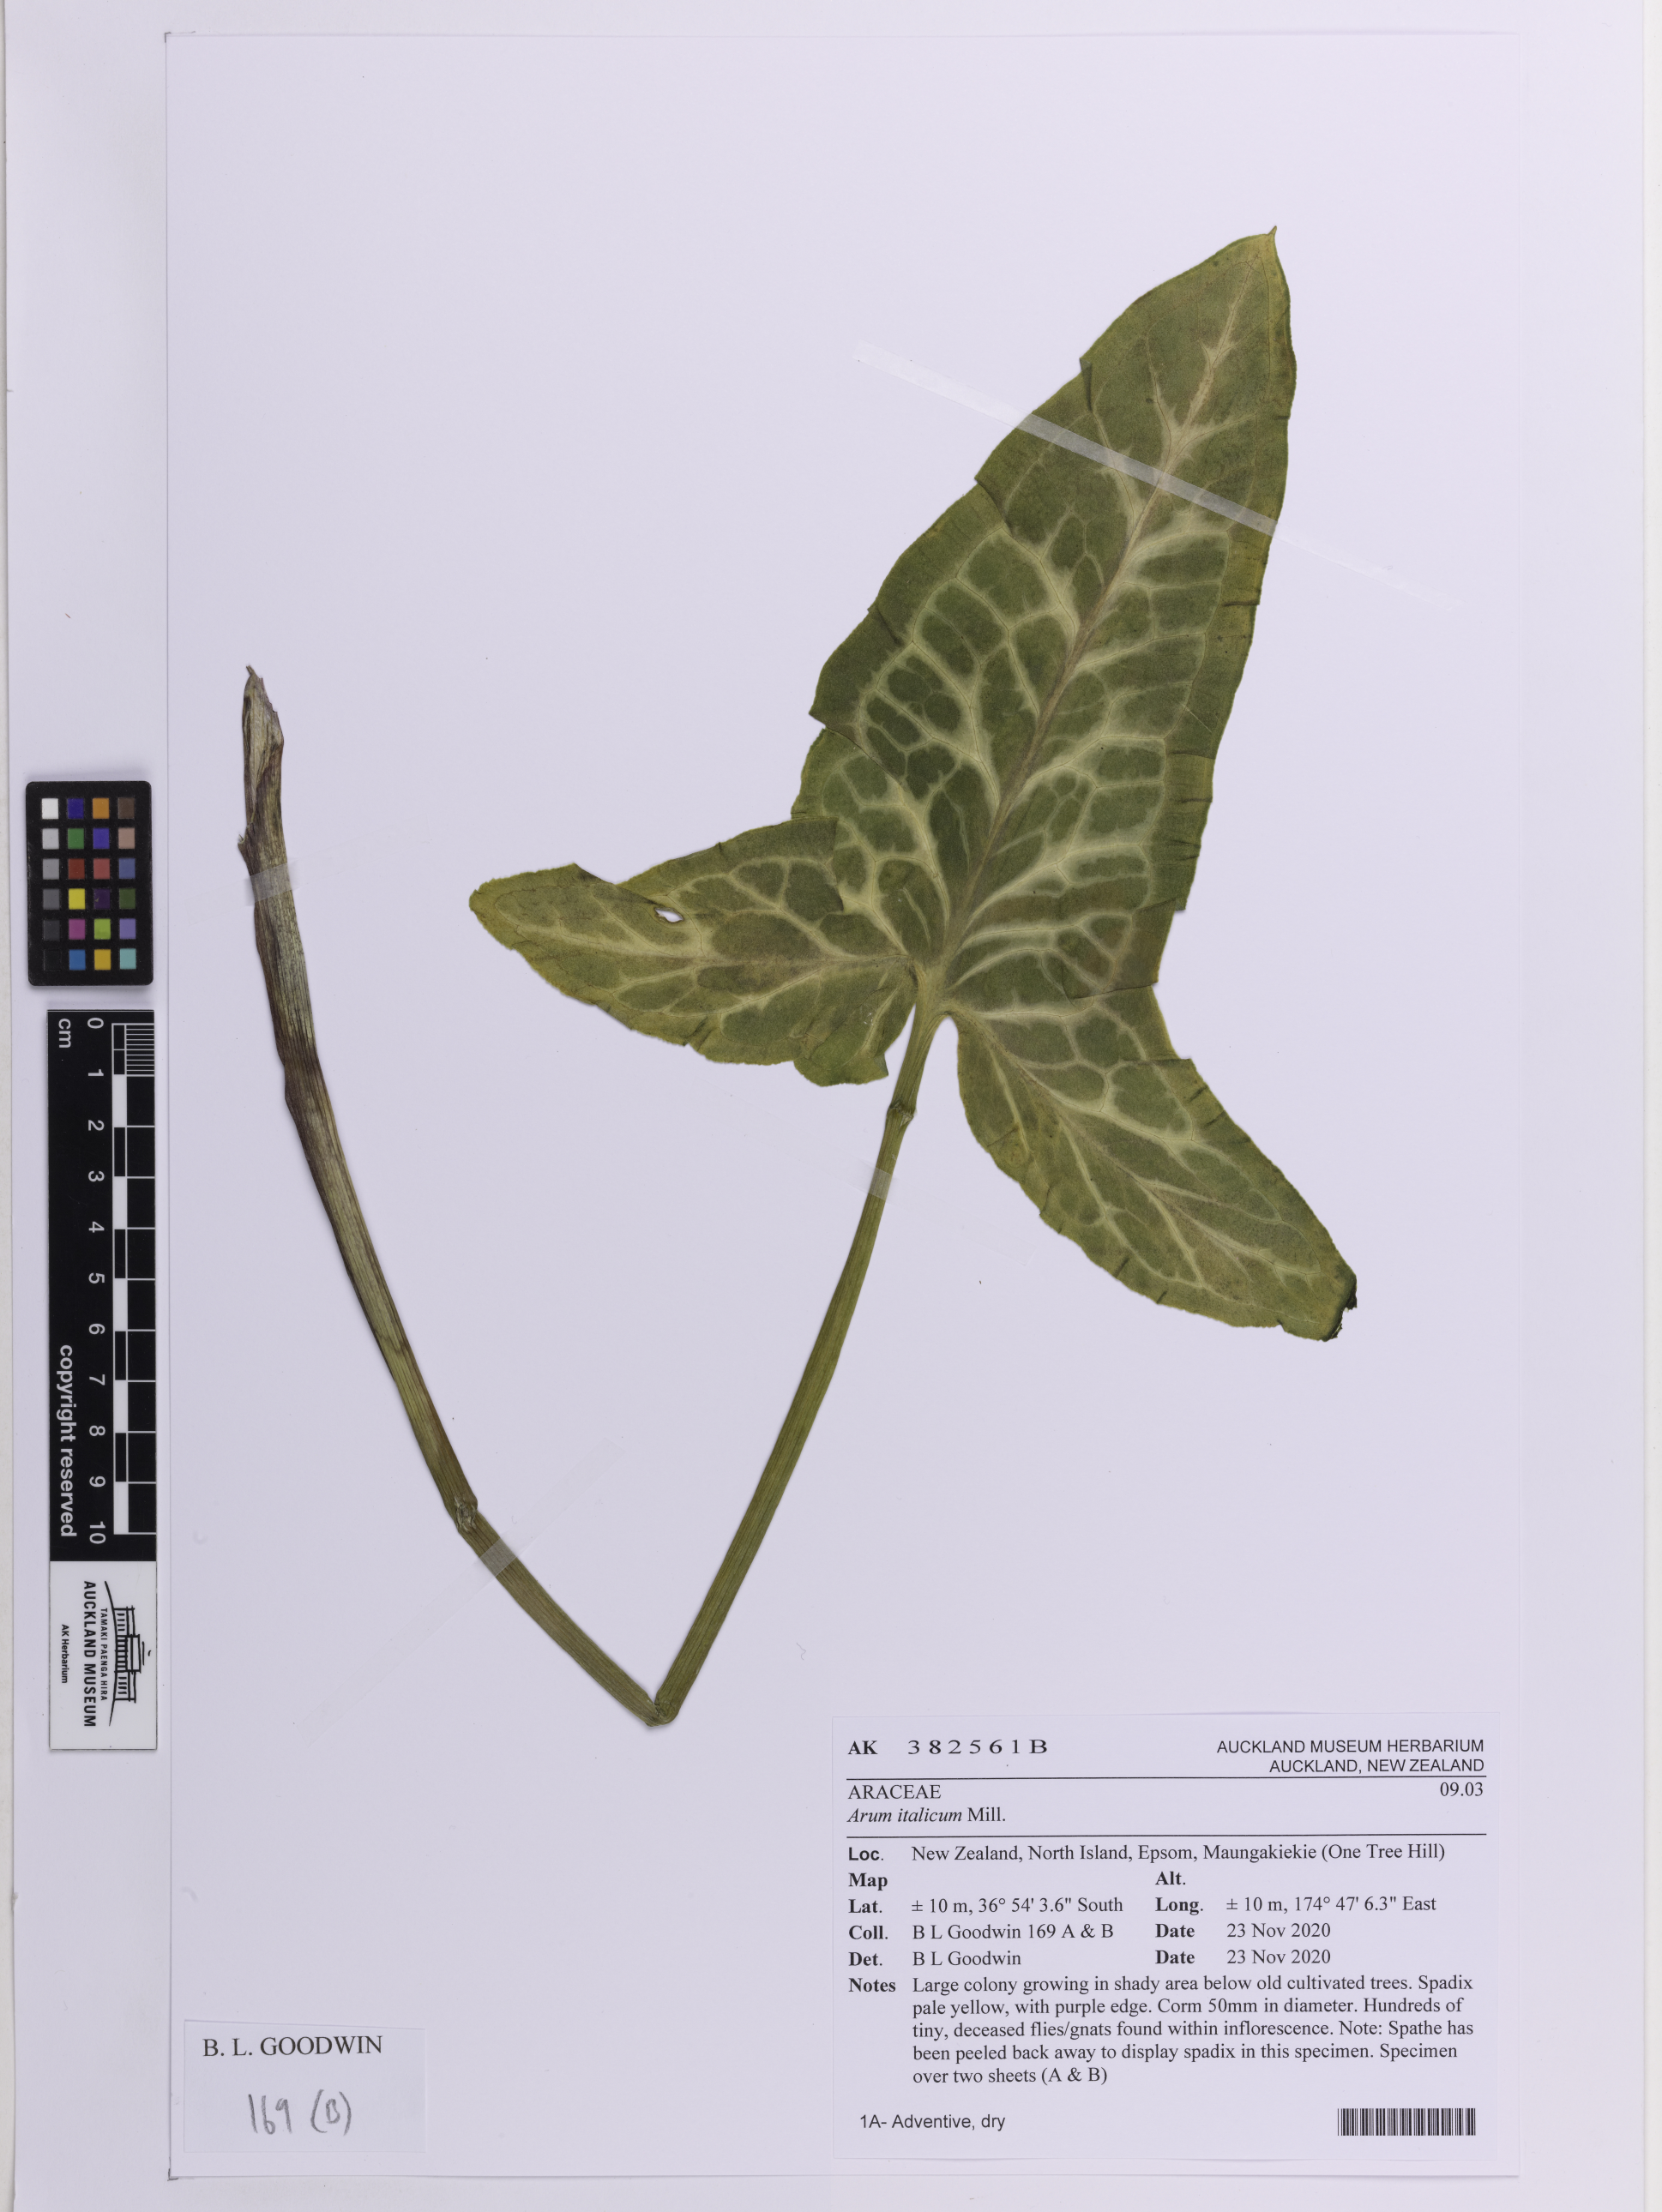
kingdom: Plantae
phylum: Tracheophyta
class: Liliopsida
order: Alismatales
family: Araceae
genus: Arum
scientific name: Arum italicum
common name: Italian lords-and-ladies
